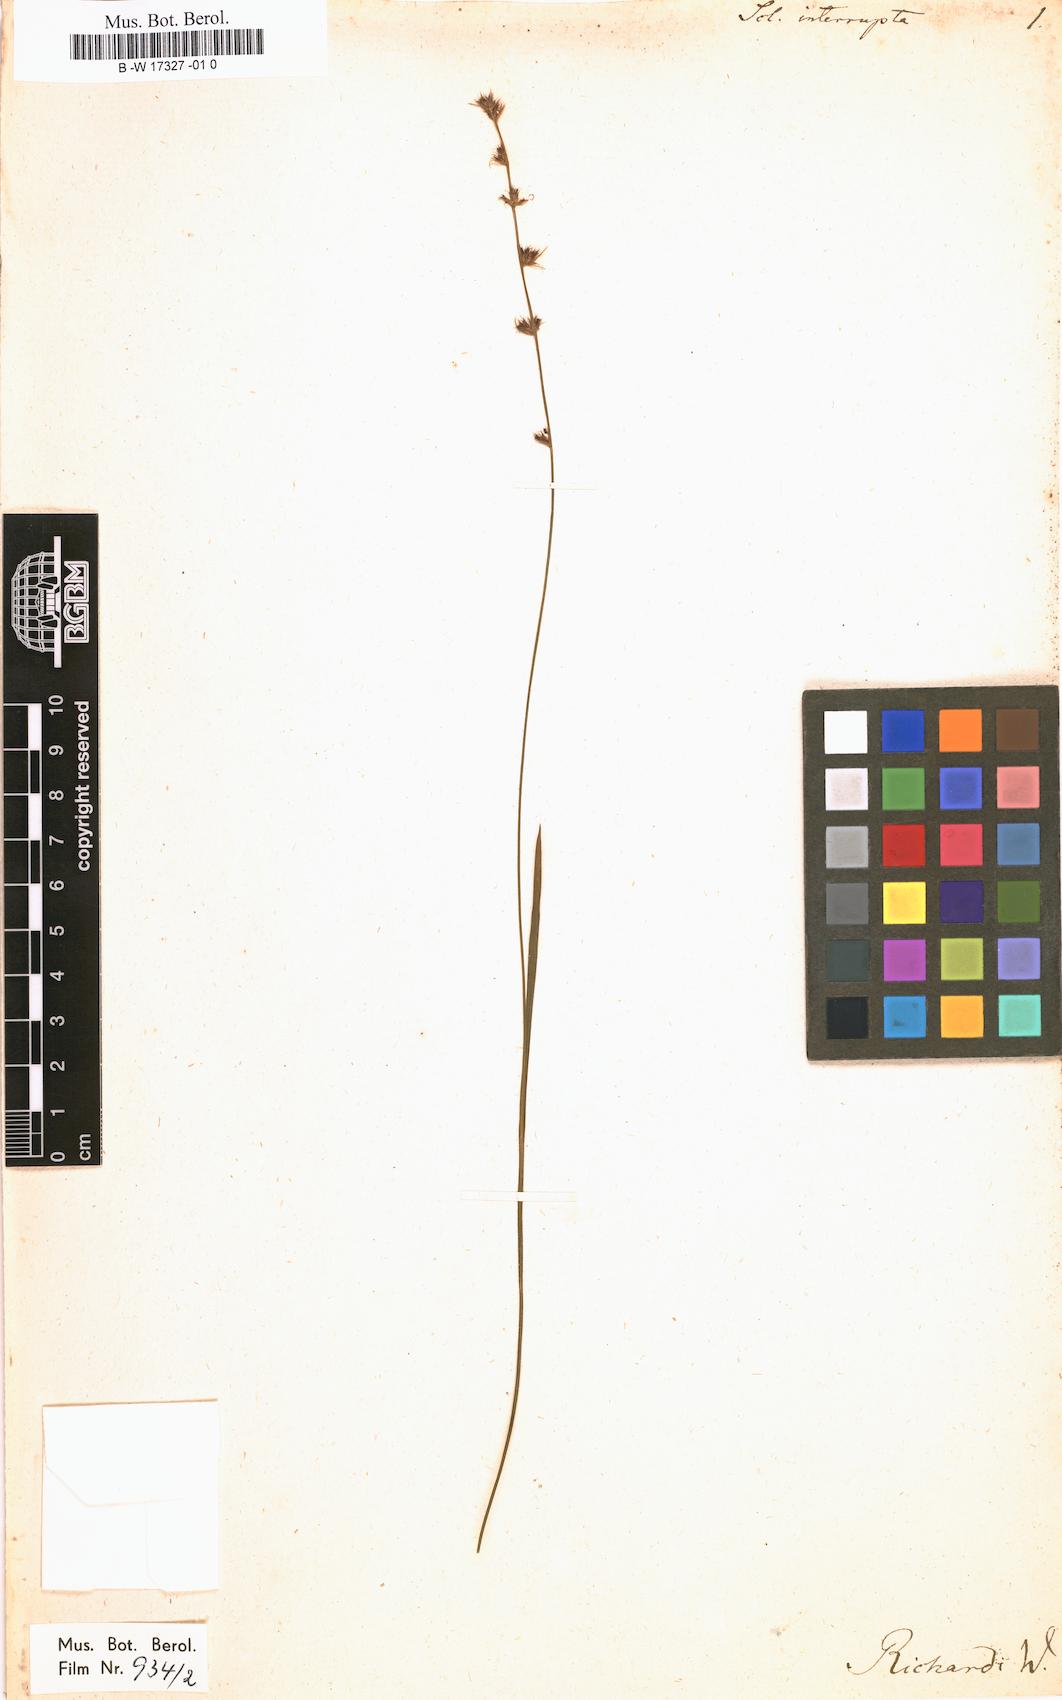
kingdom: Plantae
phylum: Tracheophyta
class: Liliopsida
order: Poales
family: Cyperaceae
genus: Scleria
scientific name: Scleria interrupta
